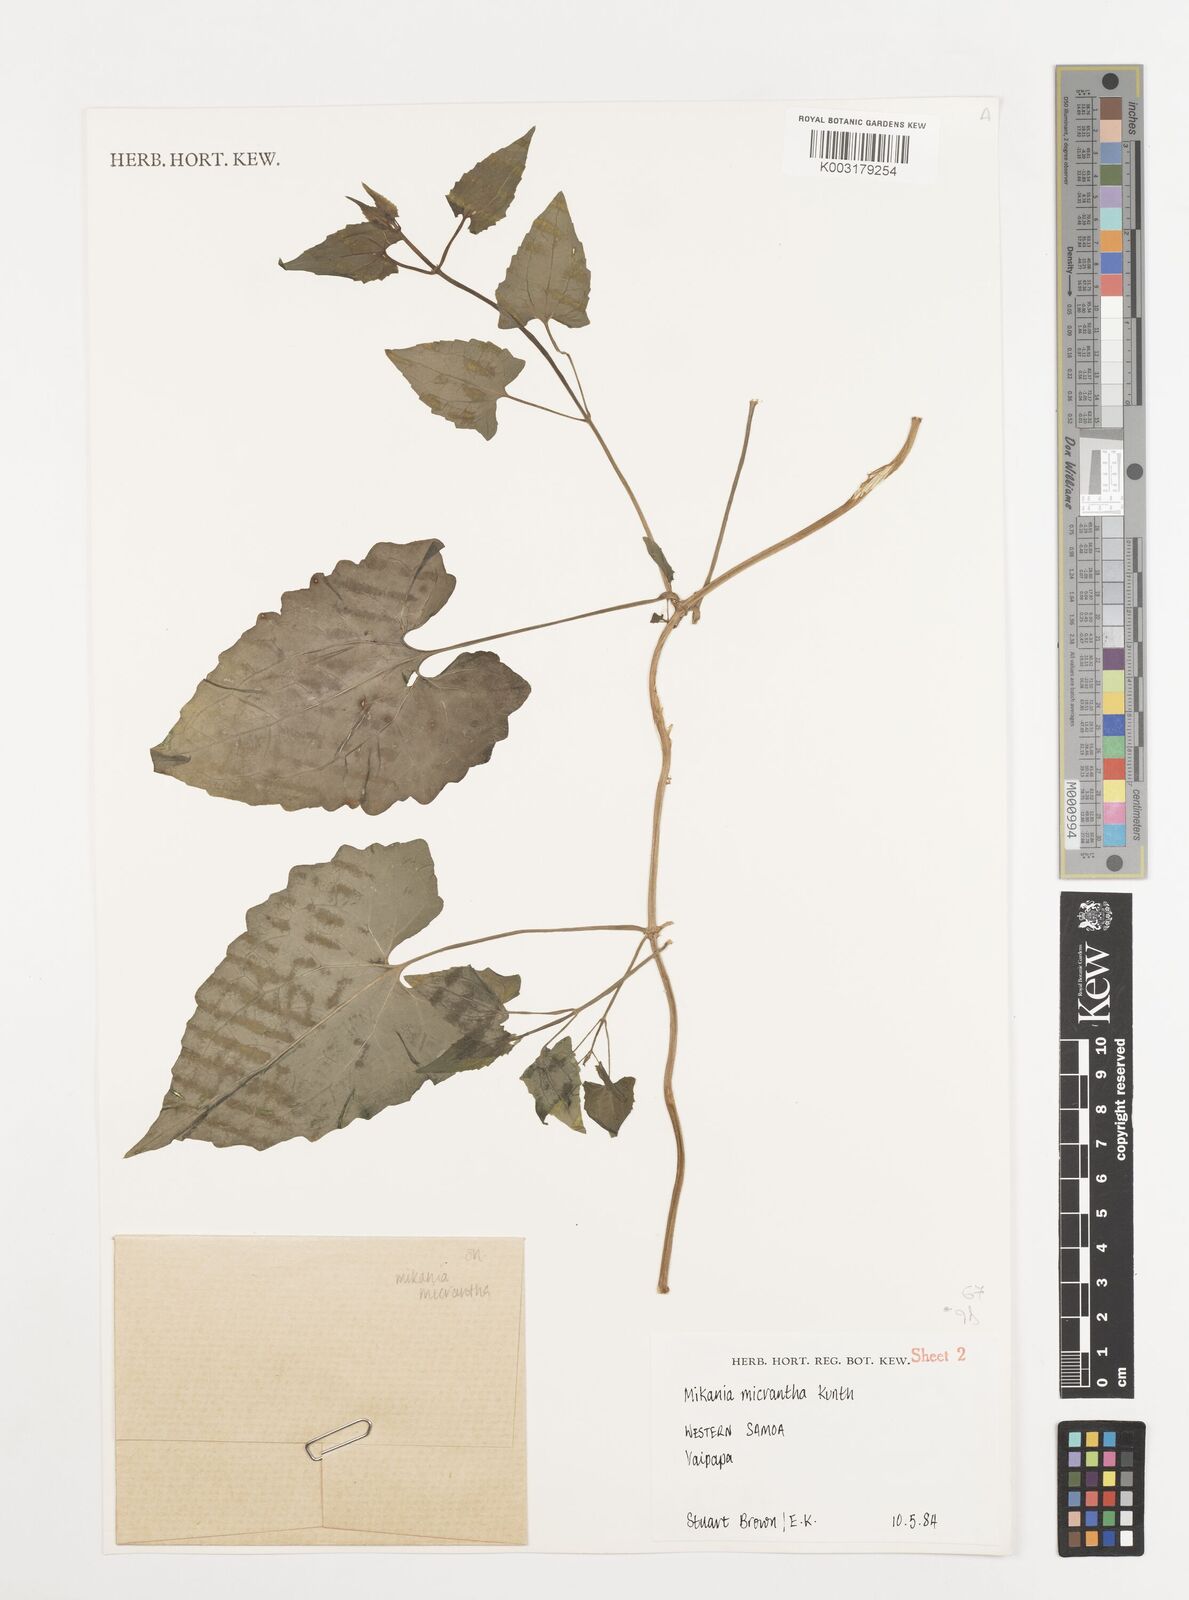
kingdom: Plantae
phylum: Tracheophyta
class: Magnoliopsida
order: Asterales
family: Asteraceae
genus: Mikania
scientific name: Mikania micrantha
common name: Mile-a-minute
